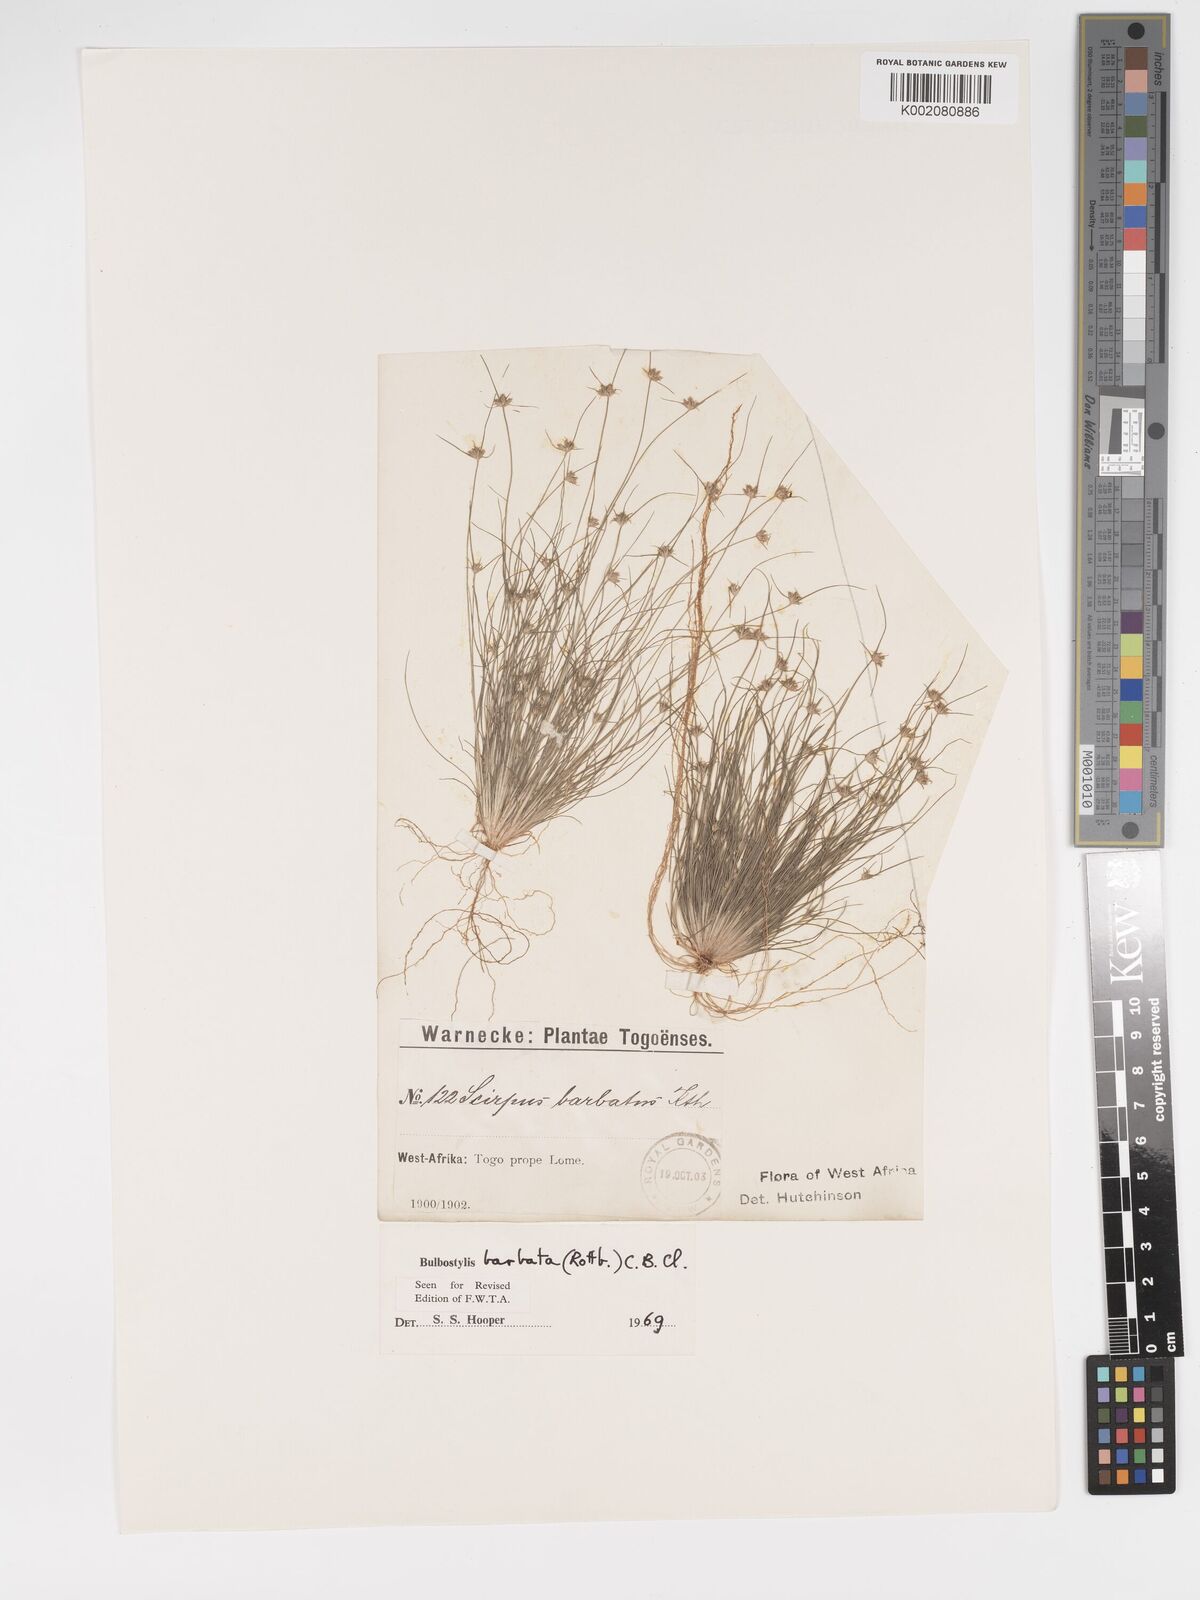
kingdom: Plantae
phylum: Tracheophyta
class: Liliopsida
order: Poales
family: Cyperaceae
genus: Bulbostylis
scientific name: Bulbostylis barbata
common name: Watergrass
